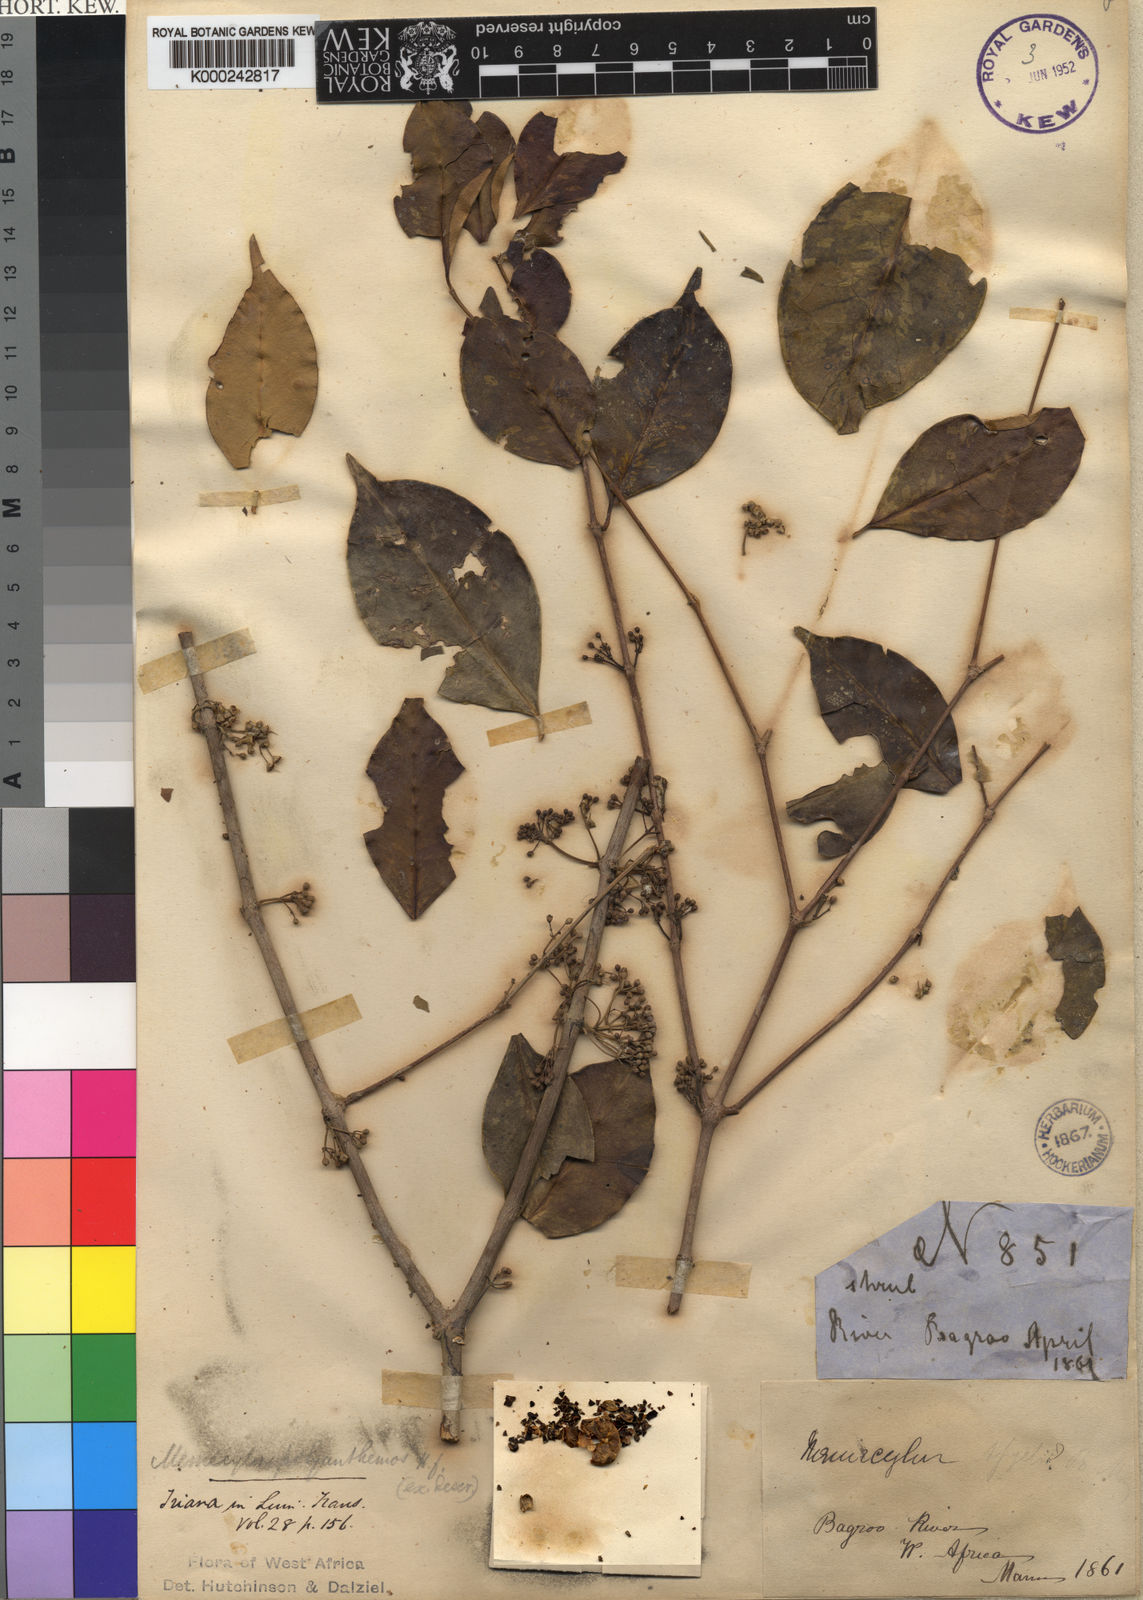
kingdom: Plantae
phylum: Tracheophyta
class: Magnoliopsida
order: Myrtales
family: Melastomataceae
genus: Memecylon
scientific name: Memecylon polyanthemos
